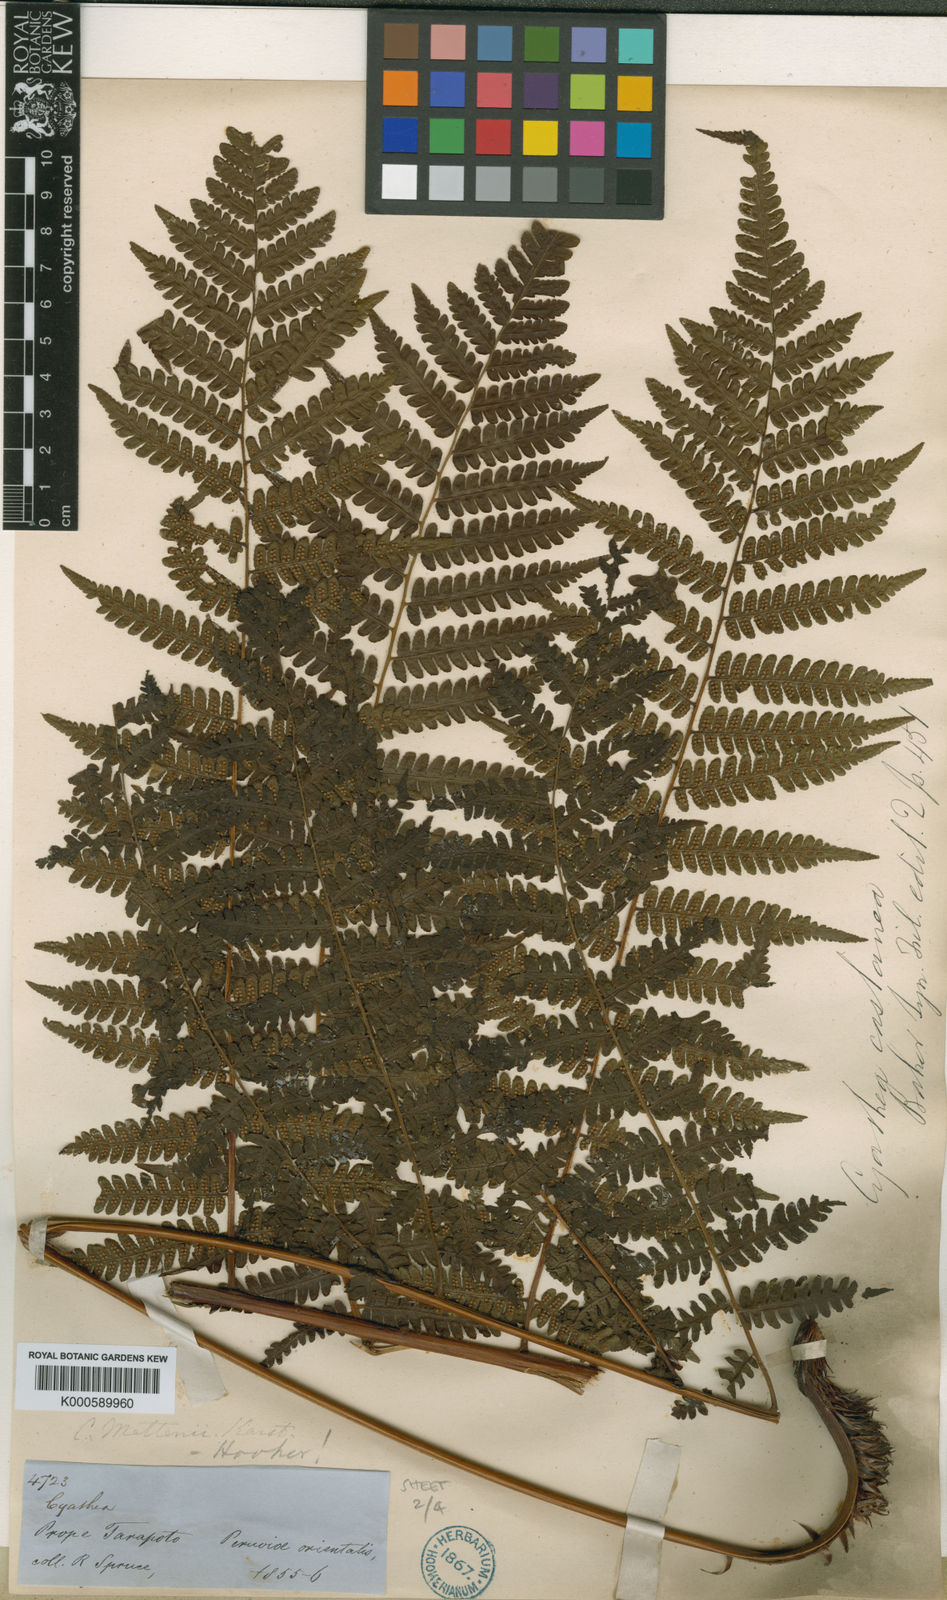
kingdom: Plantae
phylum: Tracheophyta
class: Polypodiopsida
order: Cyatheales
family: Cyatheaceae
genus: Cyathea
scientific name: Cyathea lechleri
